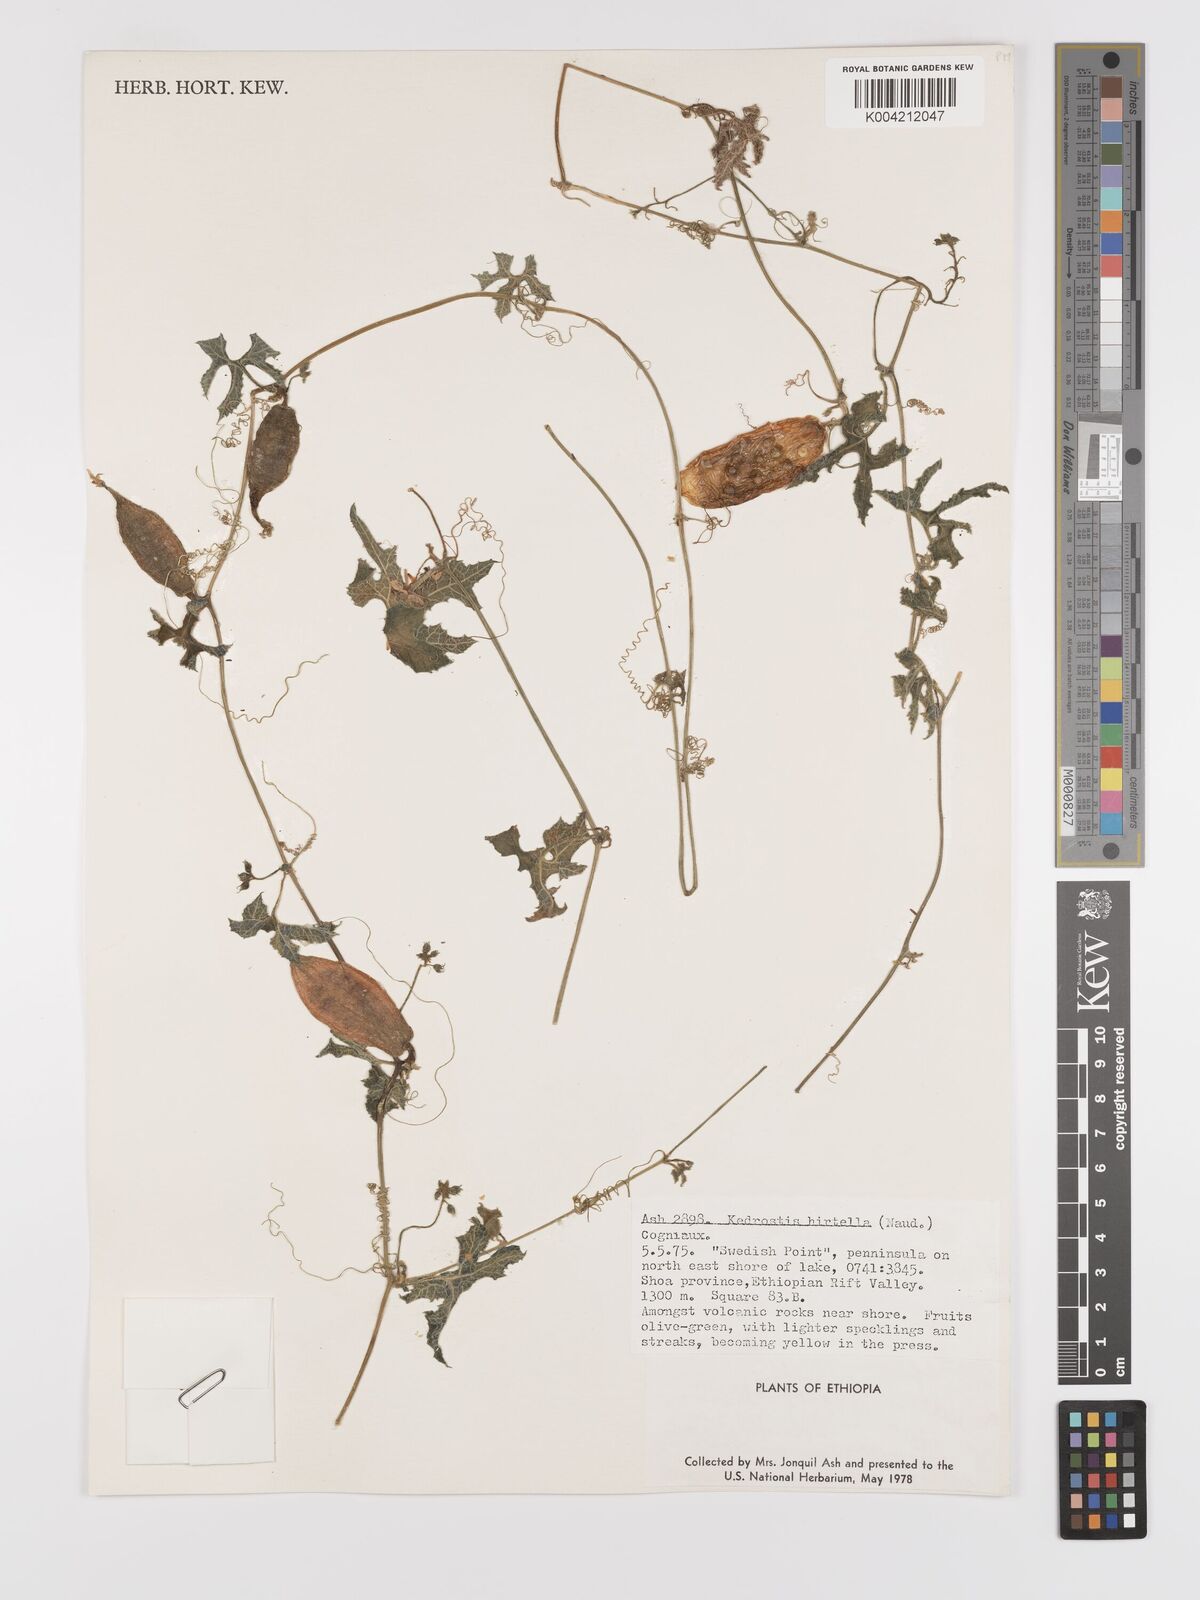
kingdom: Plantae
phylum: Tracheophyta
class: Magnoliopsida
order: Cucurbitales
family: Cucurbitaceae
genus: Kedrostis
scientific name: Kedrostis leloja
